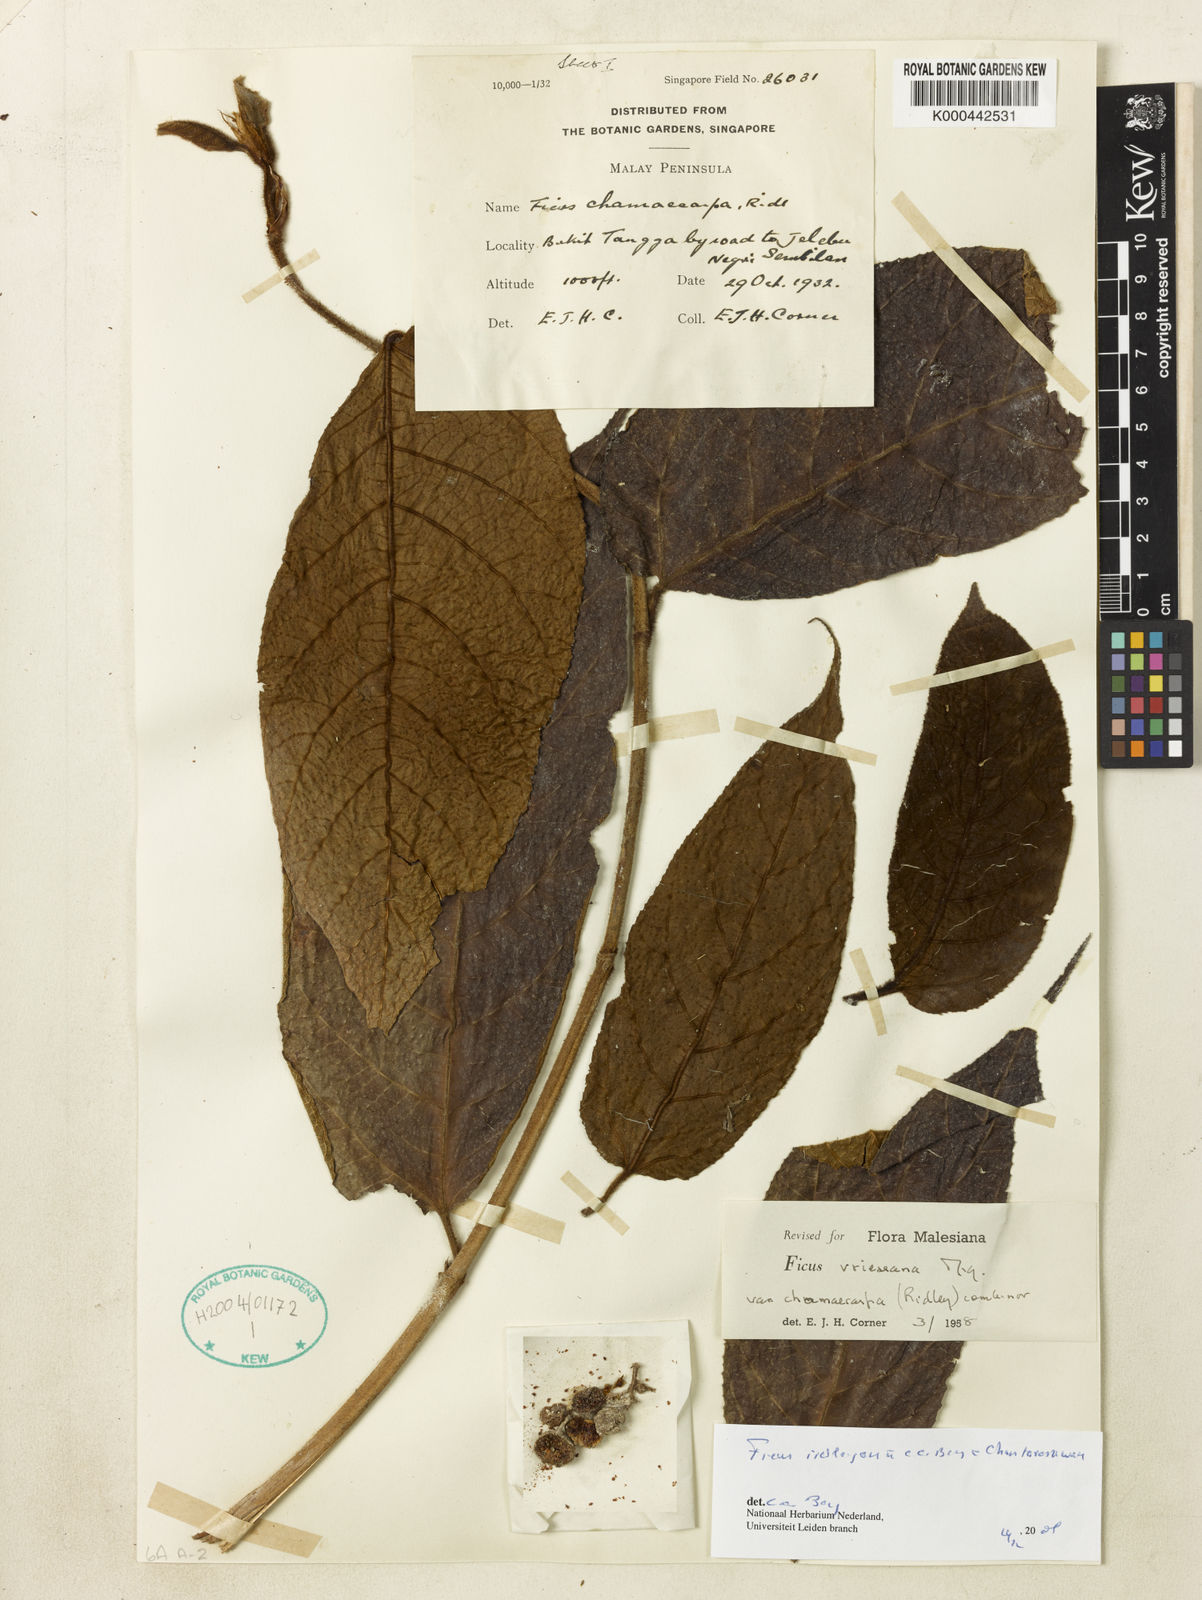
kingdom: Plantae
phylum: Tracheophyta
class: Magnoliopsida
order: Rosales
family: Moraceae
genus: Ficus
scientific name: Ficus ridleyana
